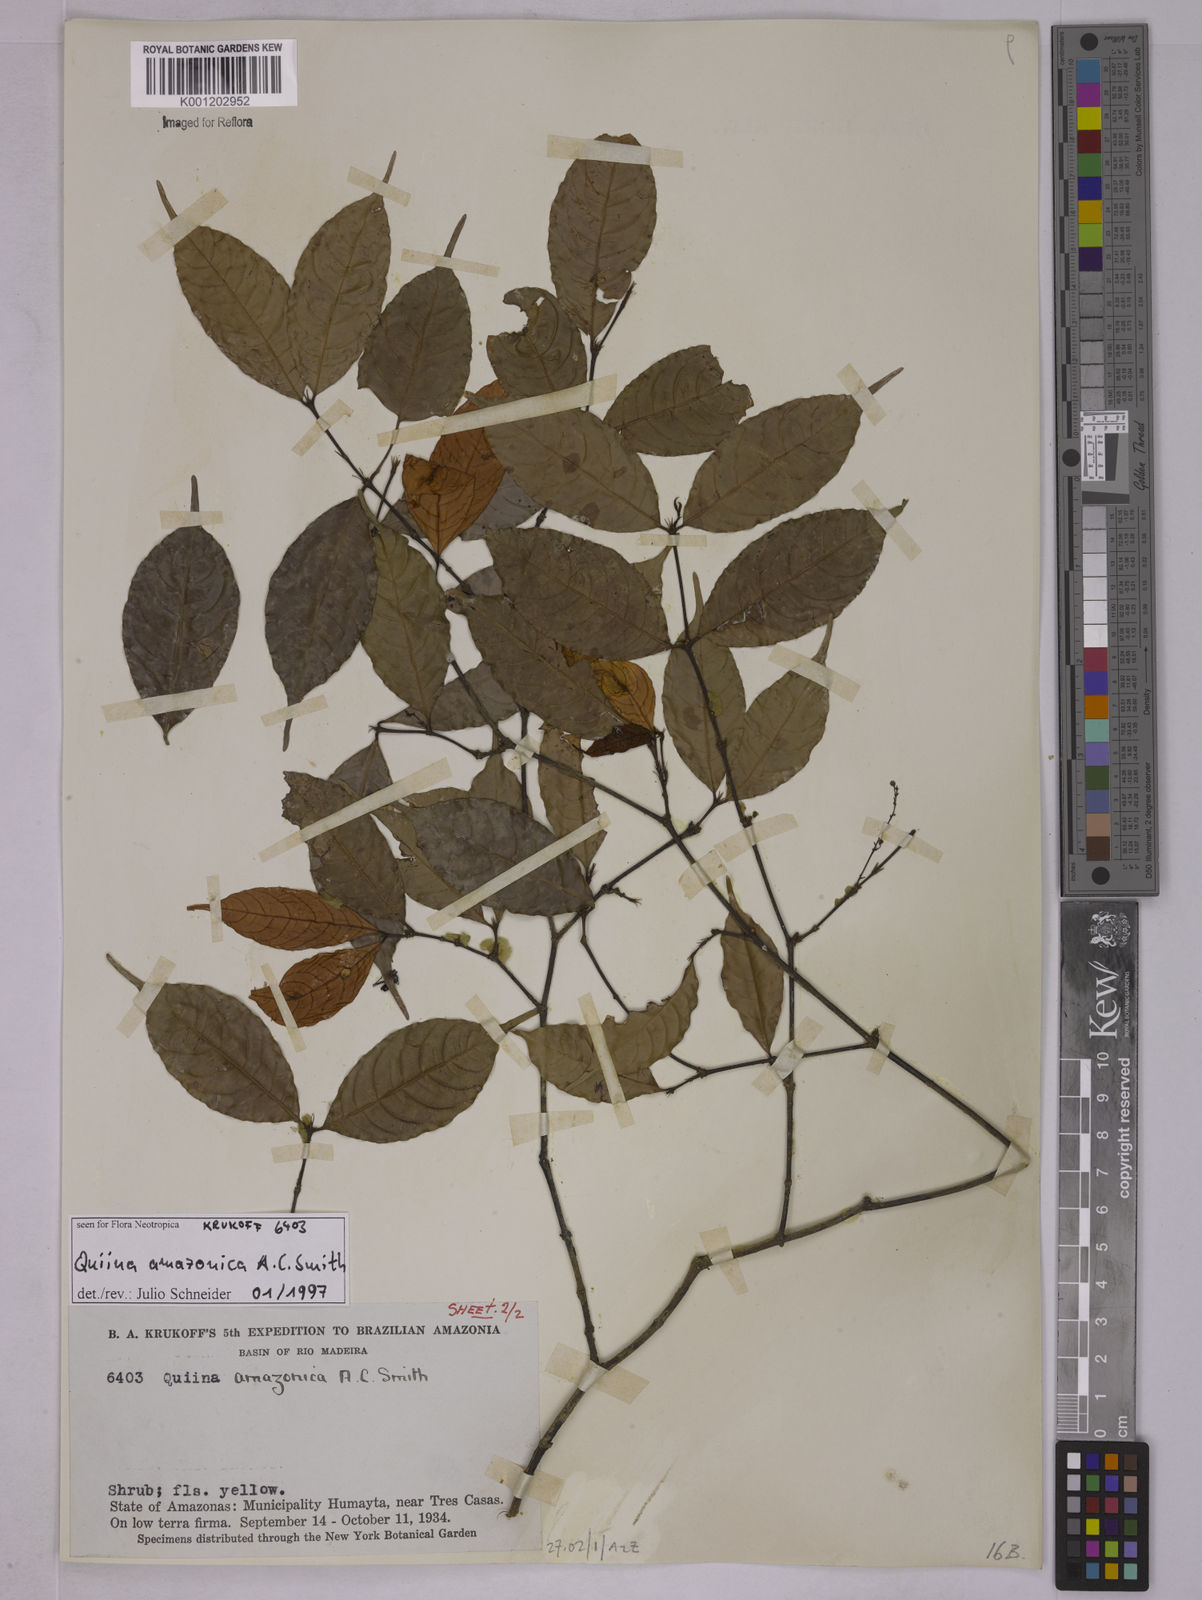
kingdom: Plantae
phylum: Tracheophyta
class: Magnoliopsida
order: Malpighiales
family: Quiinaceae
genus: Quiina
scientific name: Quiina amazonica
